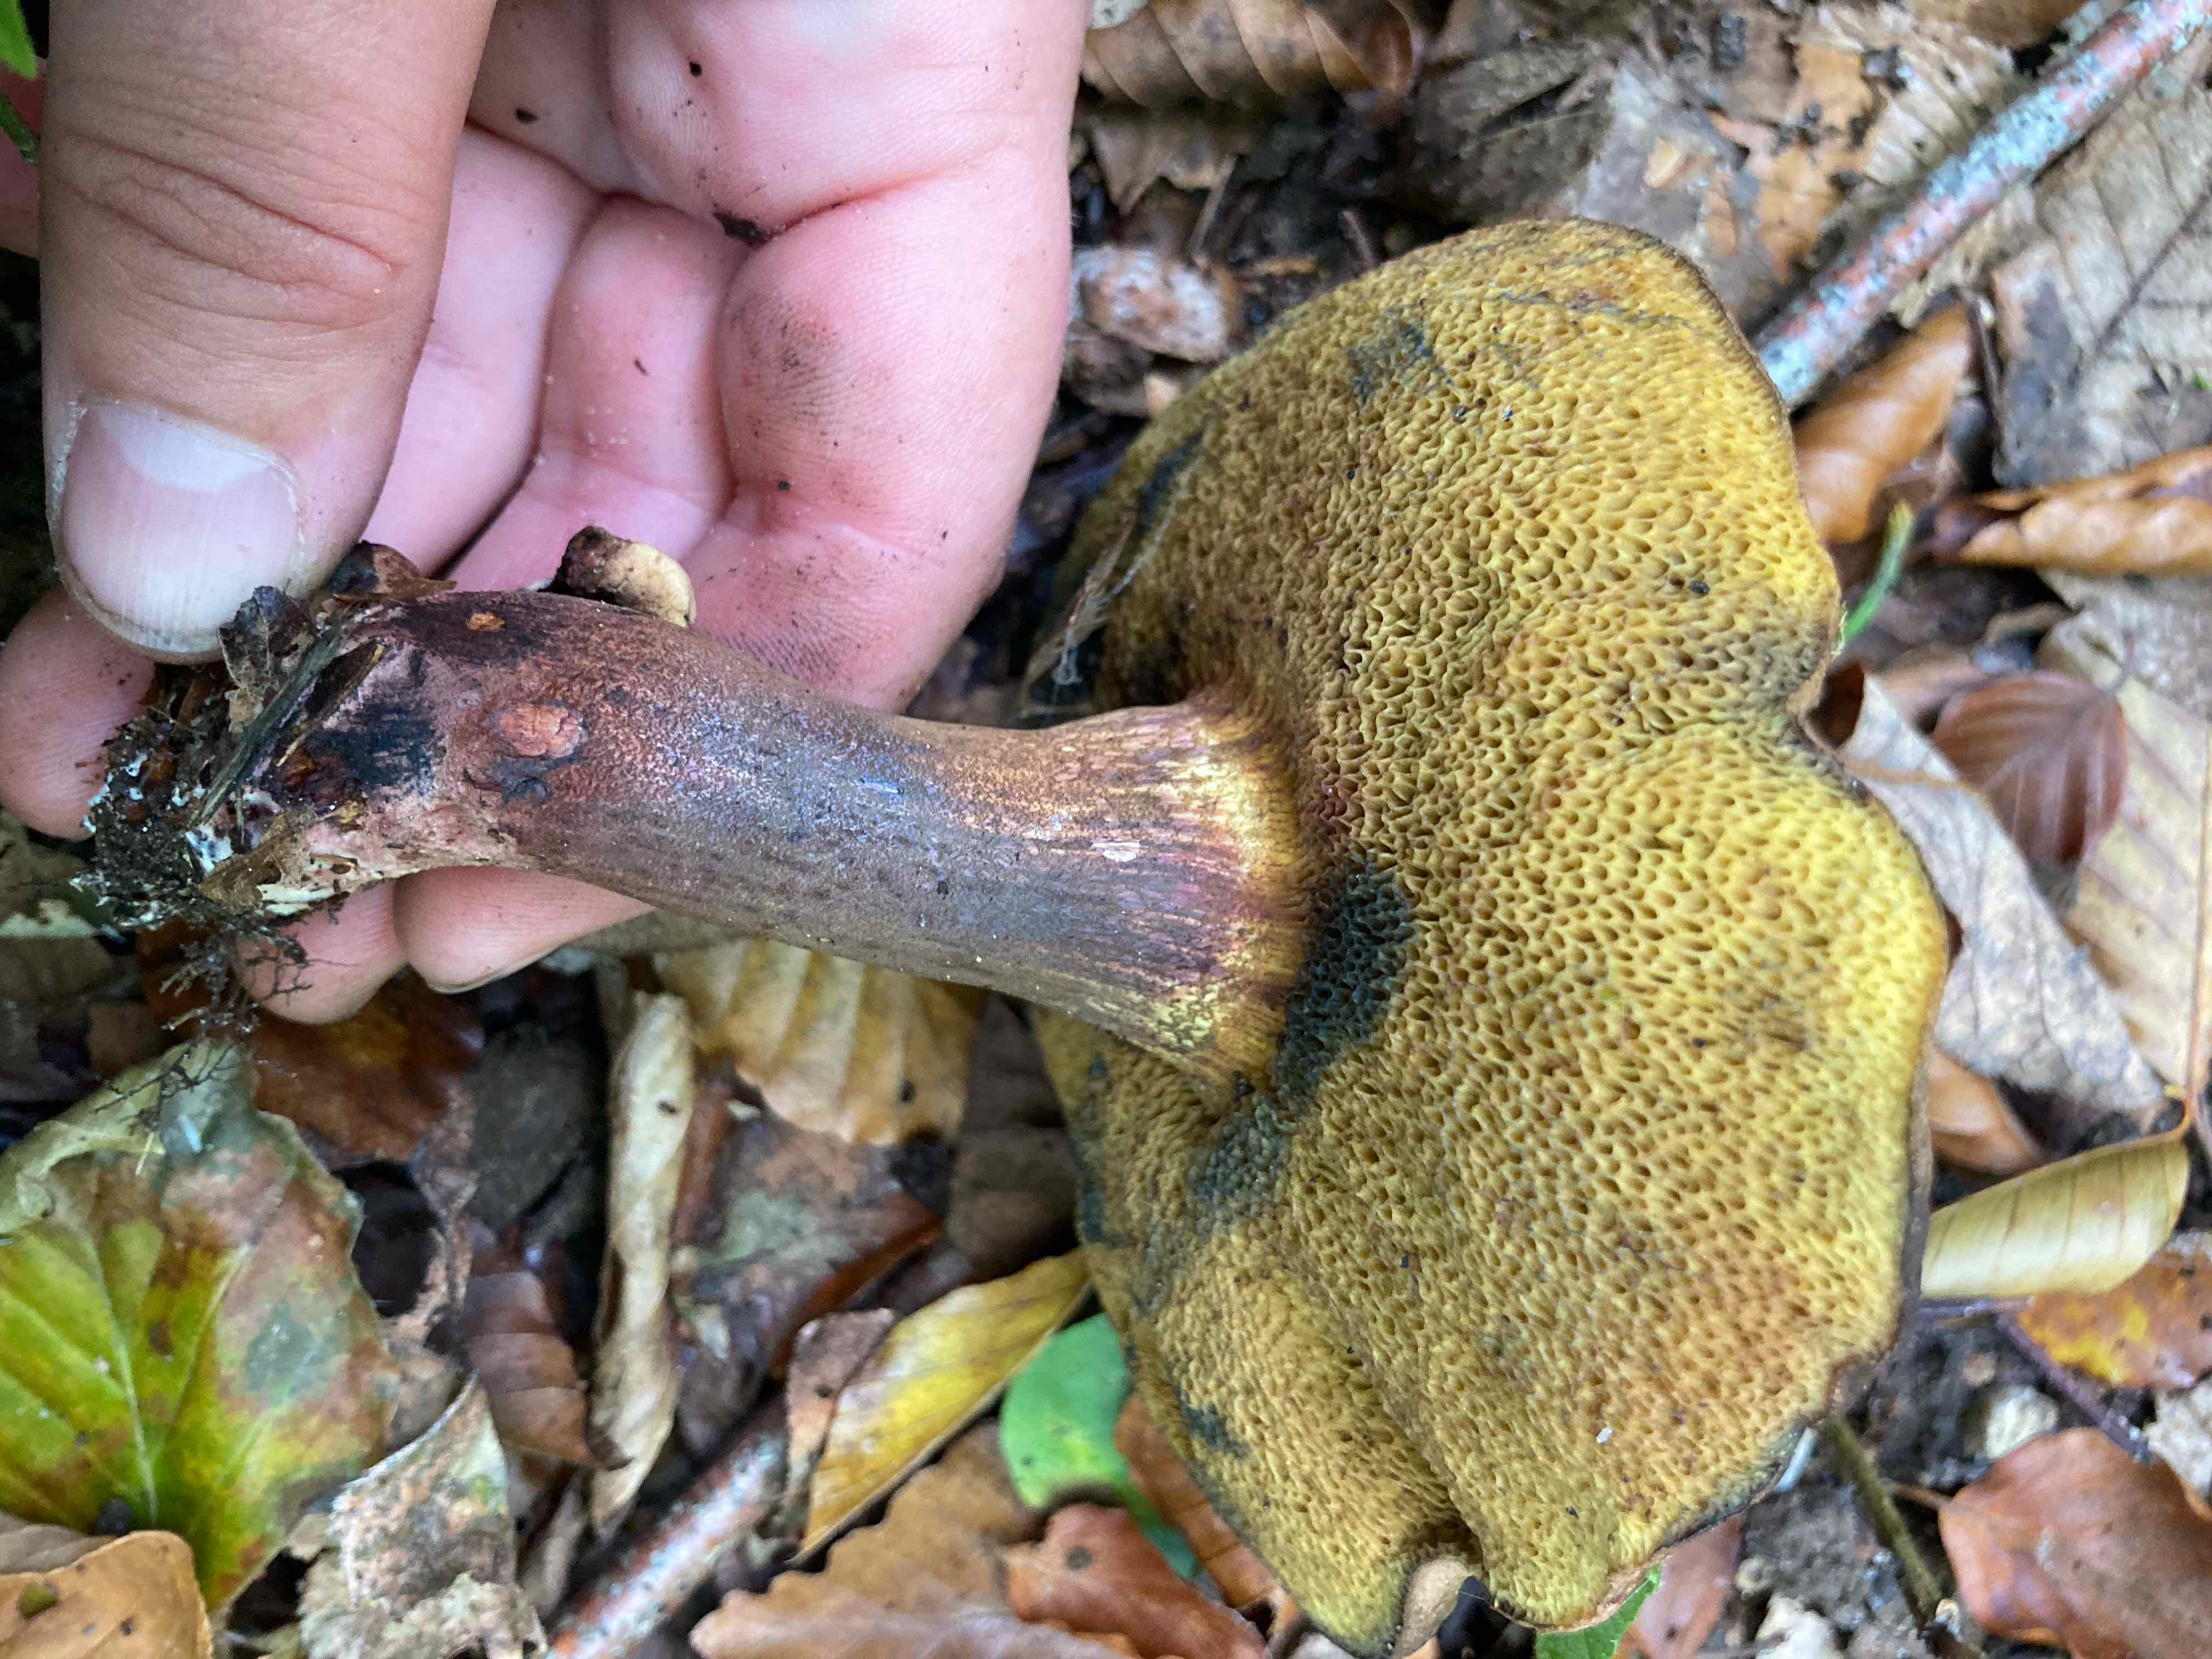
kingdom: Fungi
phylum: Basidiomycota
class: Agaricomycetes
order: Boletales
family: Boletaceae
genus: Cyanoboletus
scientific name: Cyanoboletus pulverulentus
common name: sortblånende rørhat
